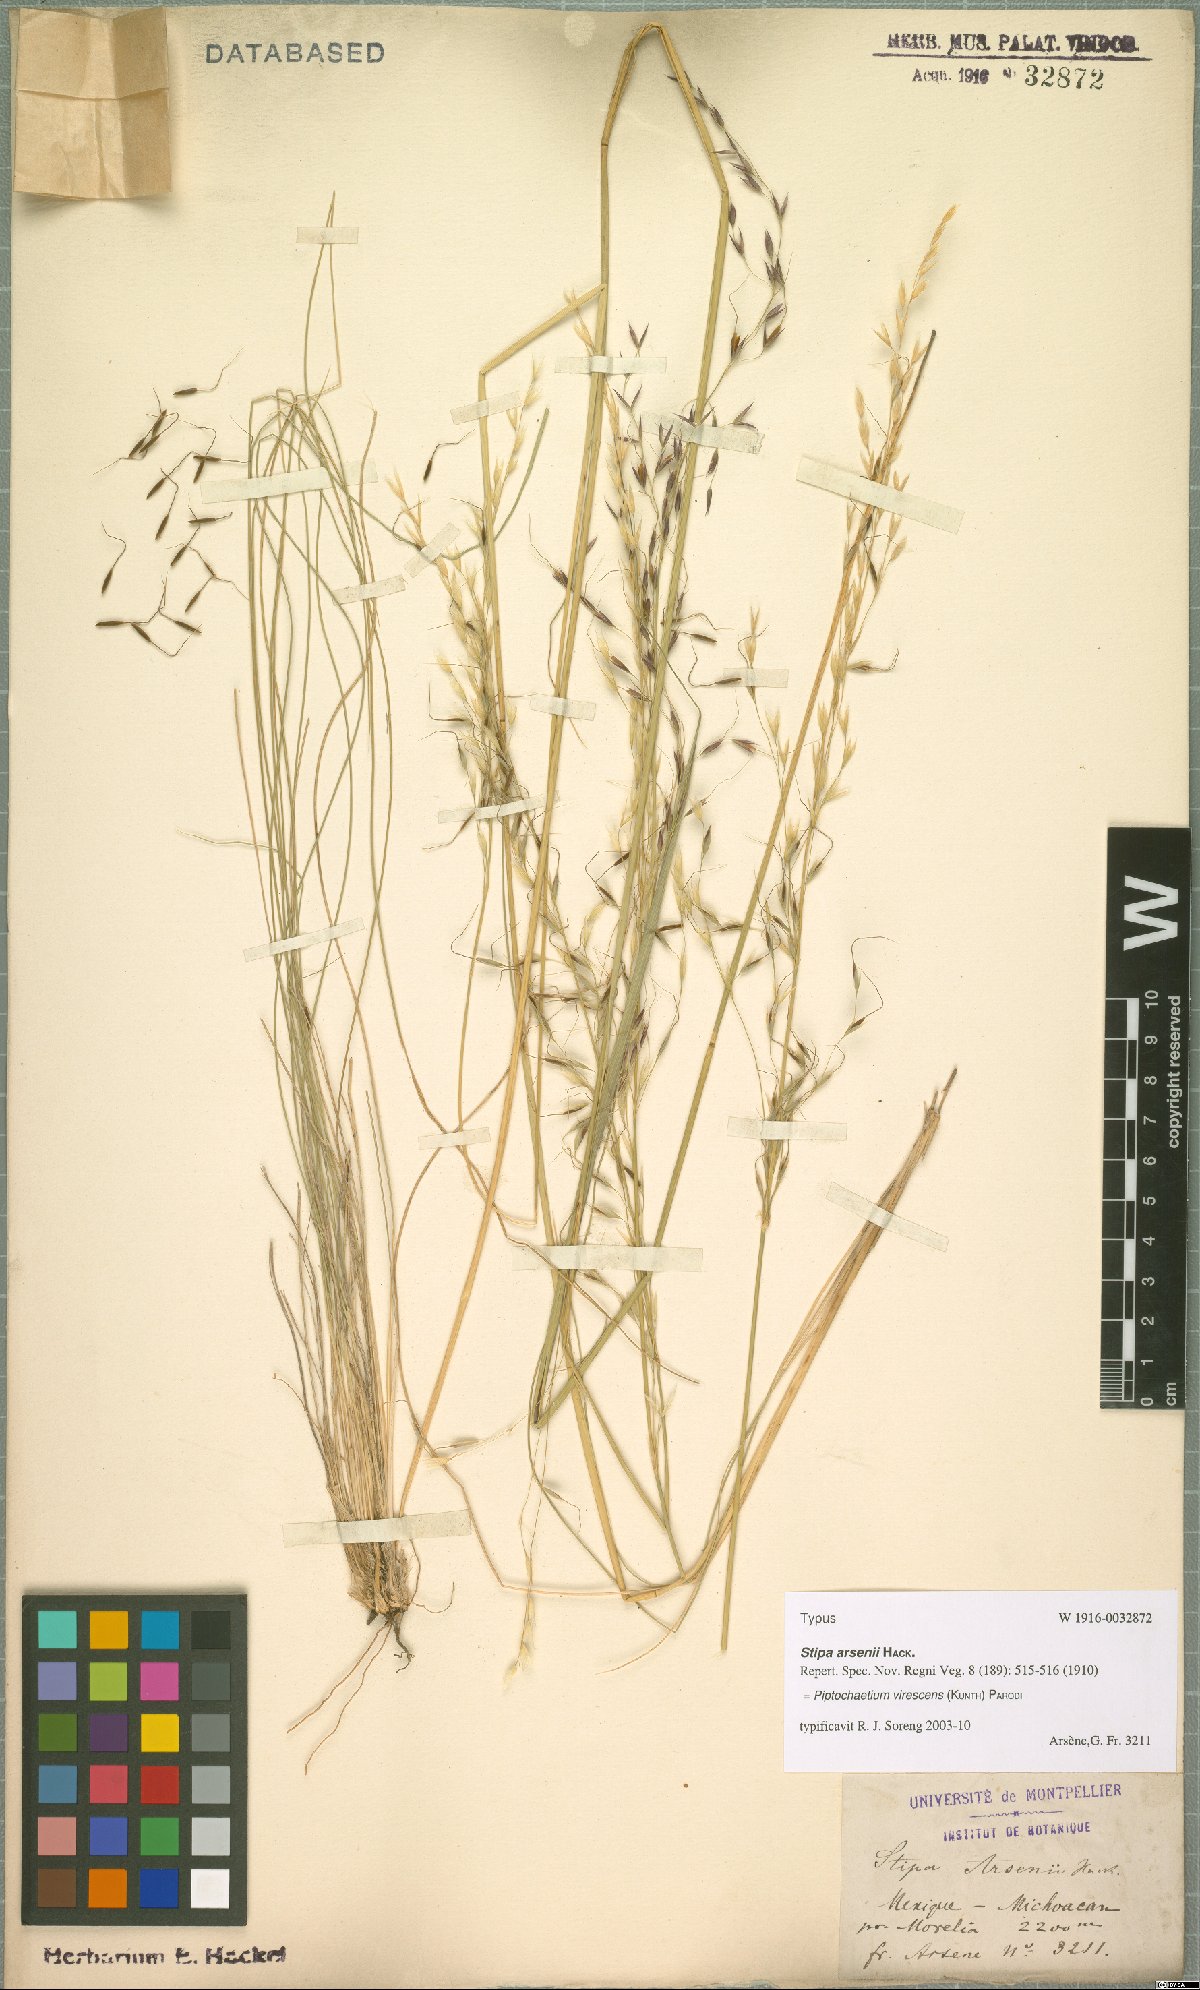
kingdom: Plantae
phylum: Tracheophyta
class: Liliopsida
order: Poales
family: Poaceae
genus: Piptochaetium
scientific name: Piptochaetium virescens
